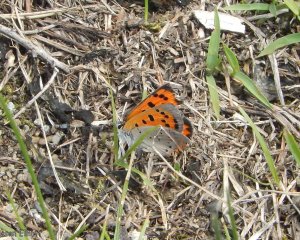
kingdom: Animalia
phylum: Arthropoda
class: Insecta
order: Lepidoptera
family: Lycaenidae
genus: Lycaena
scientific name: Lycaena phlaeas
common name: American Copper
